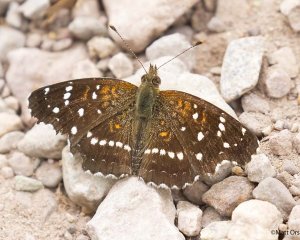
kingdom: Animalia
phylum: Arthropoda
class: Insecta
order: Lepidoptera
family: Nymphalidae
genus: Anthanassa
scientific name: Anthanassa texana
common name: Texan Crescent
